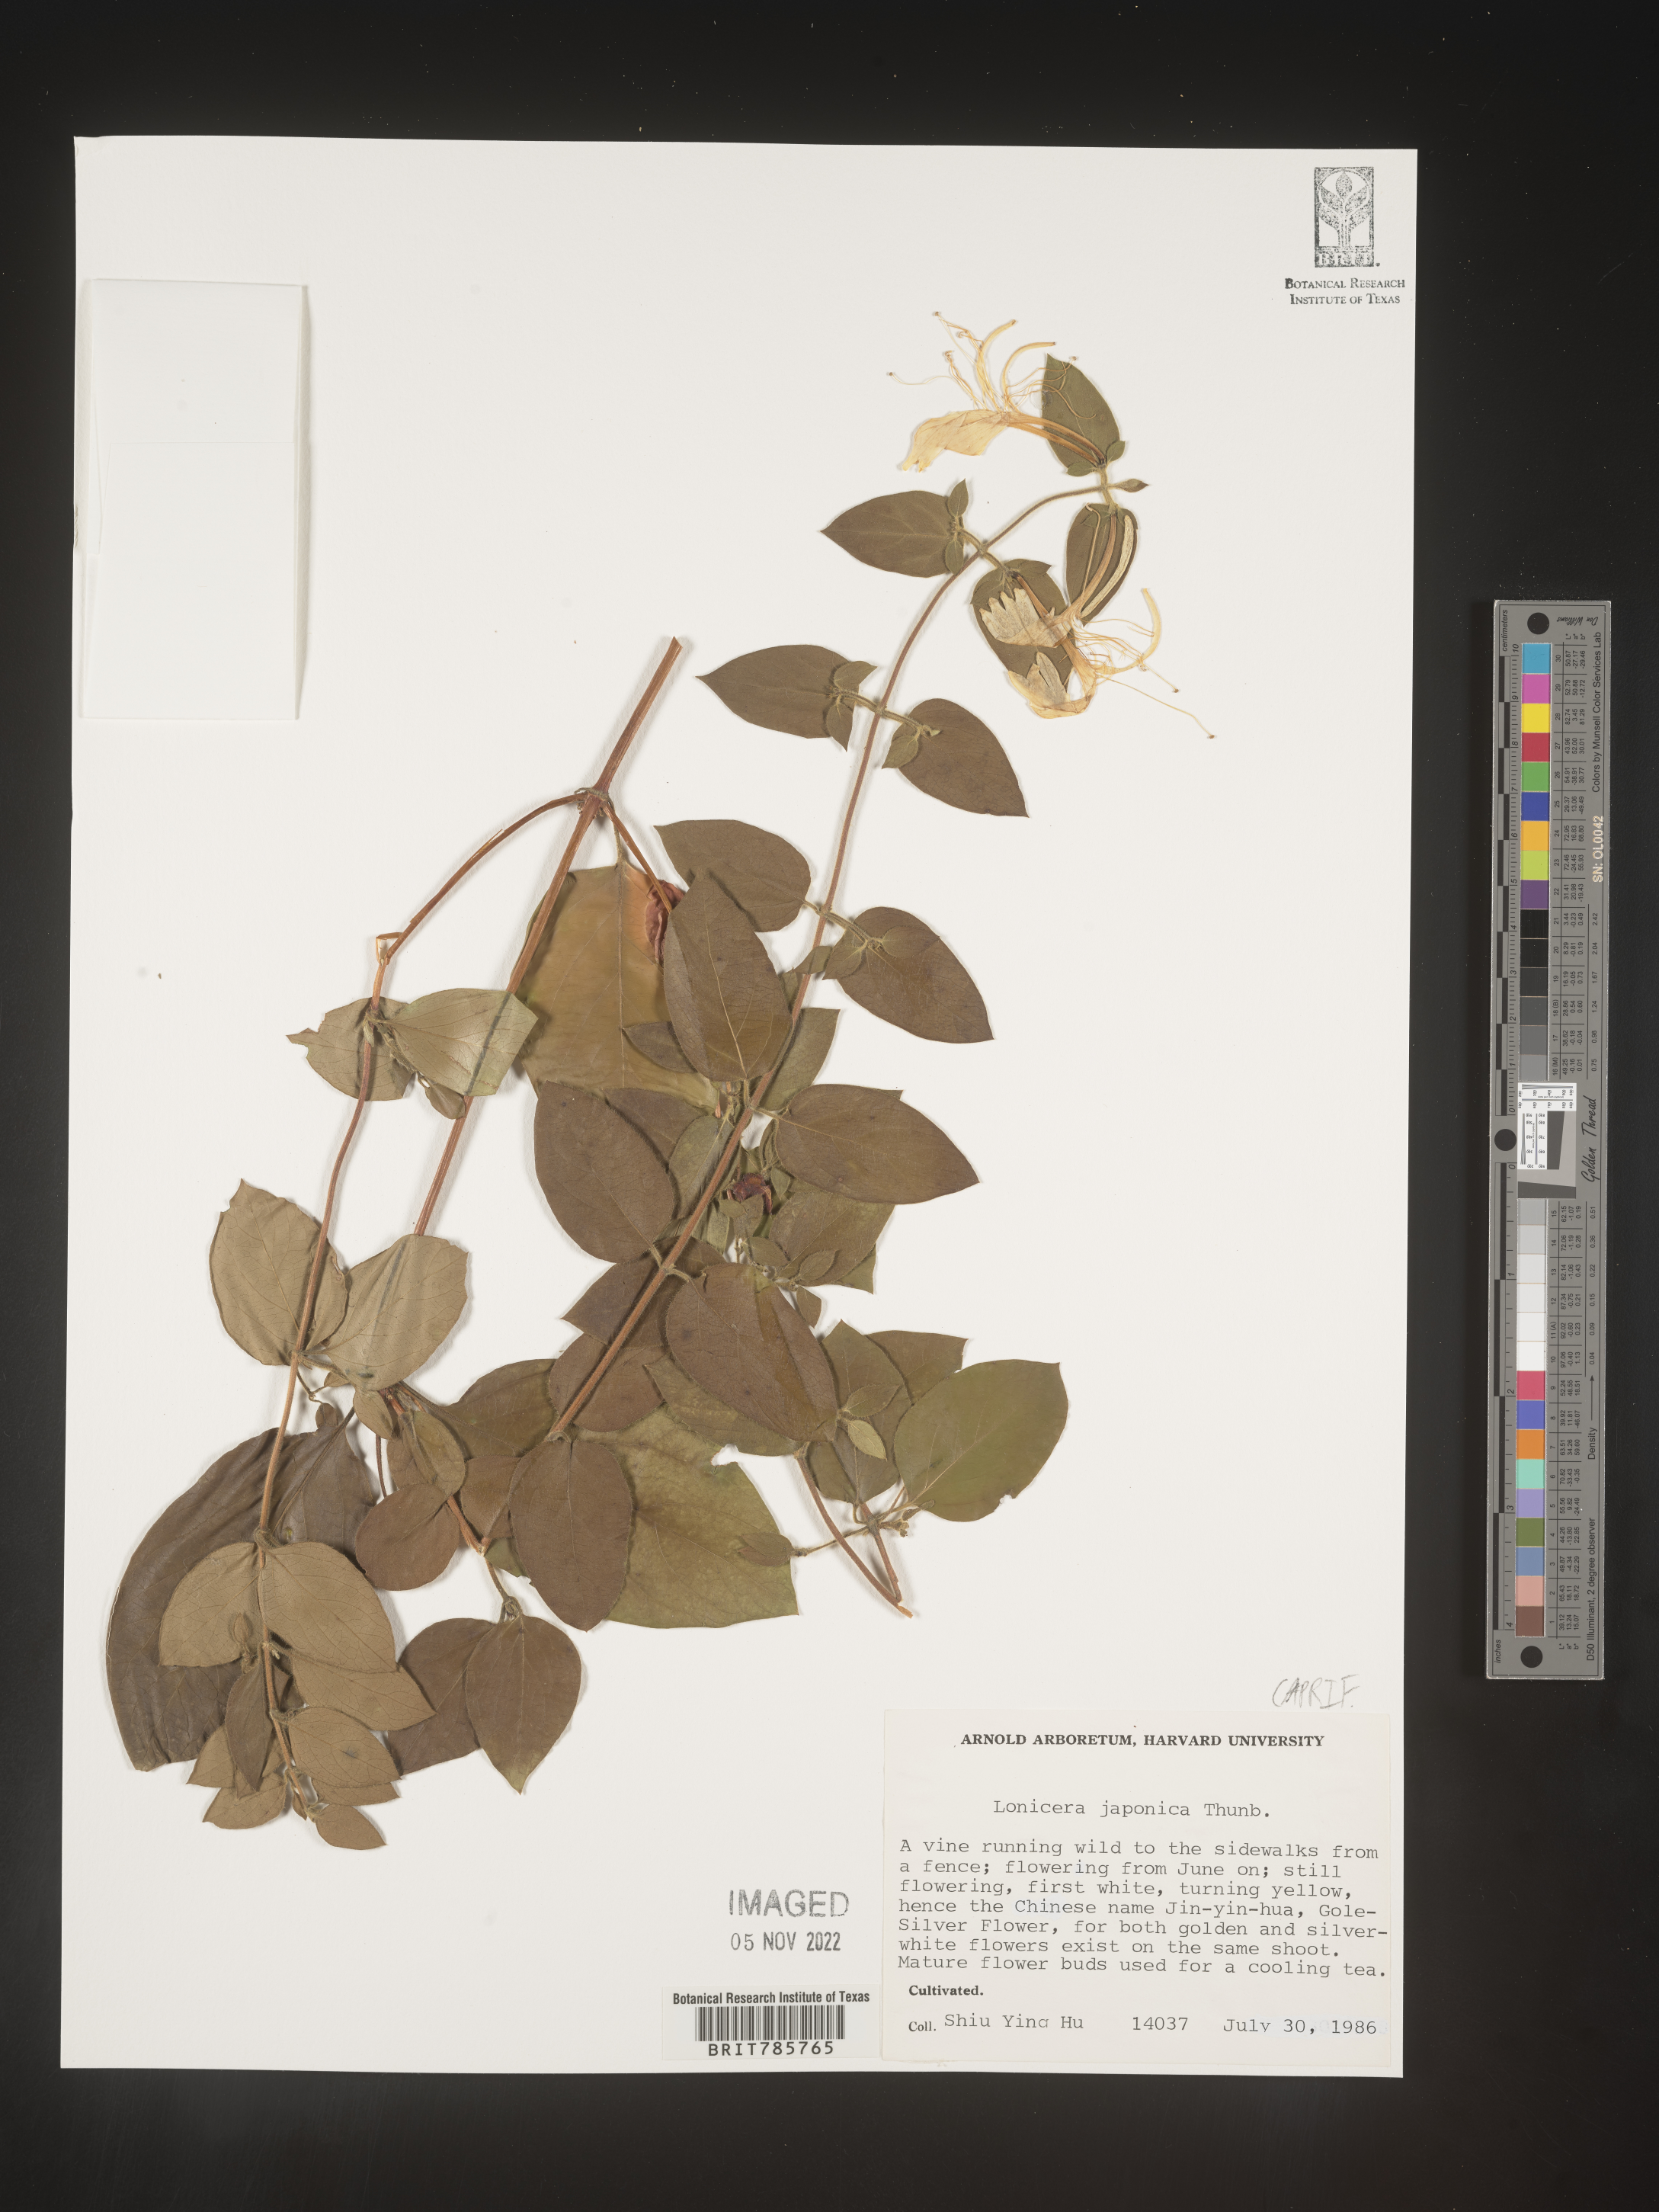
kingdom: Plantae
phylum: Tracheophyta
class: Magnoliopsida
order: Dipsacales
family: Caprifoliaceae
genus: Lonicera
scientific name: Lonicera
